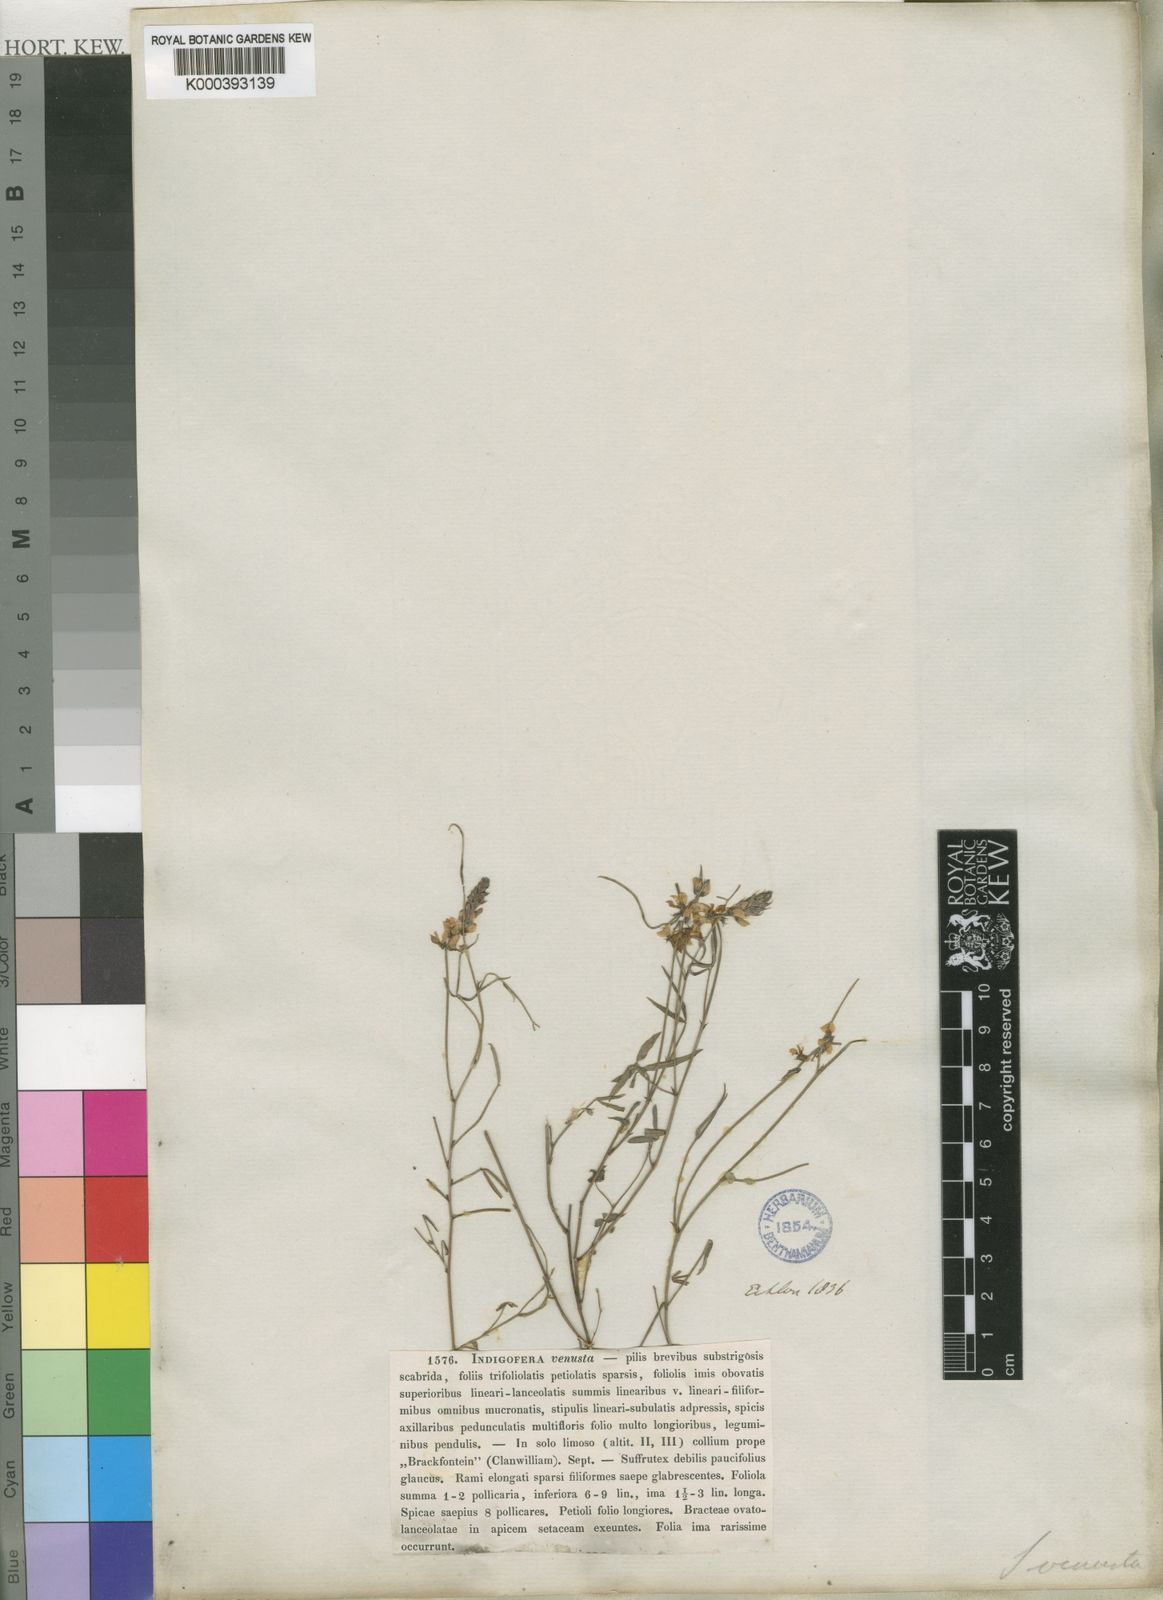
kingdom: Plantae
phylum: Tracheophyta
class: Magnoliopsida
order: Fabales
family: Fabaceae
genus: Indigofera
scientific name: Indigofera venusta
